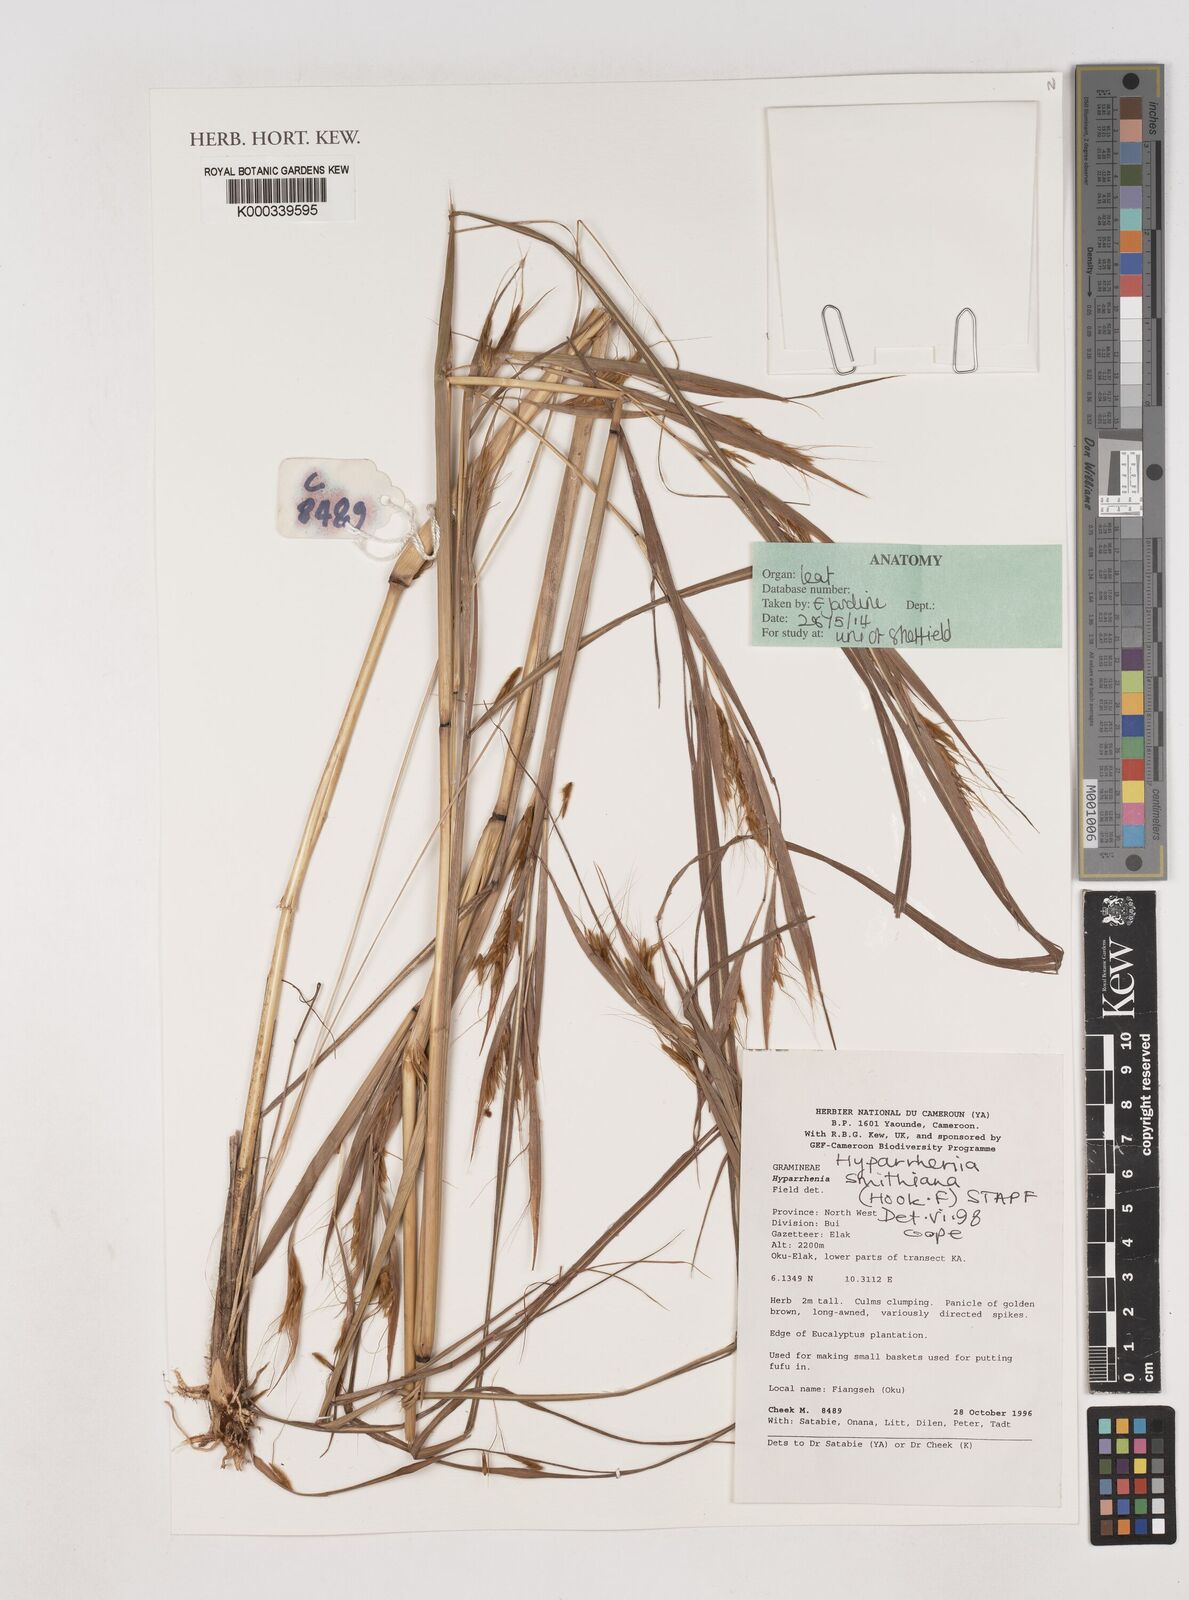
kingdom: Plantae
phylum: Tracheophyta
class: Liliopsida
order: Poales
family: Poaceae
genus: Hyparrhenia
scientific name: Hyparrhenia smithiana
